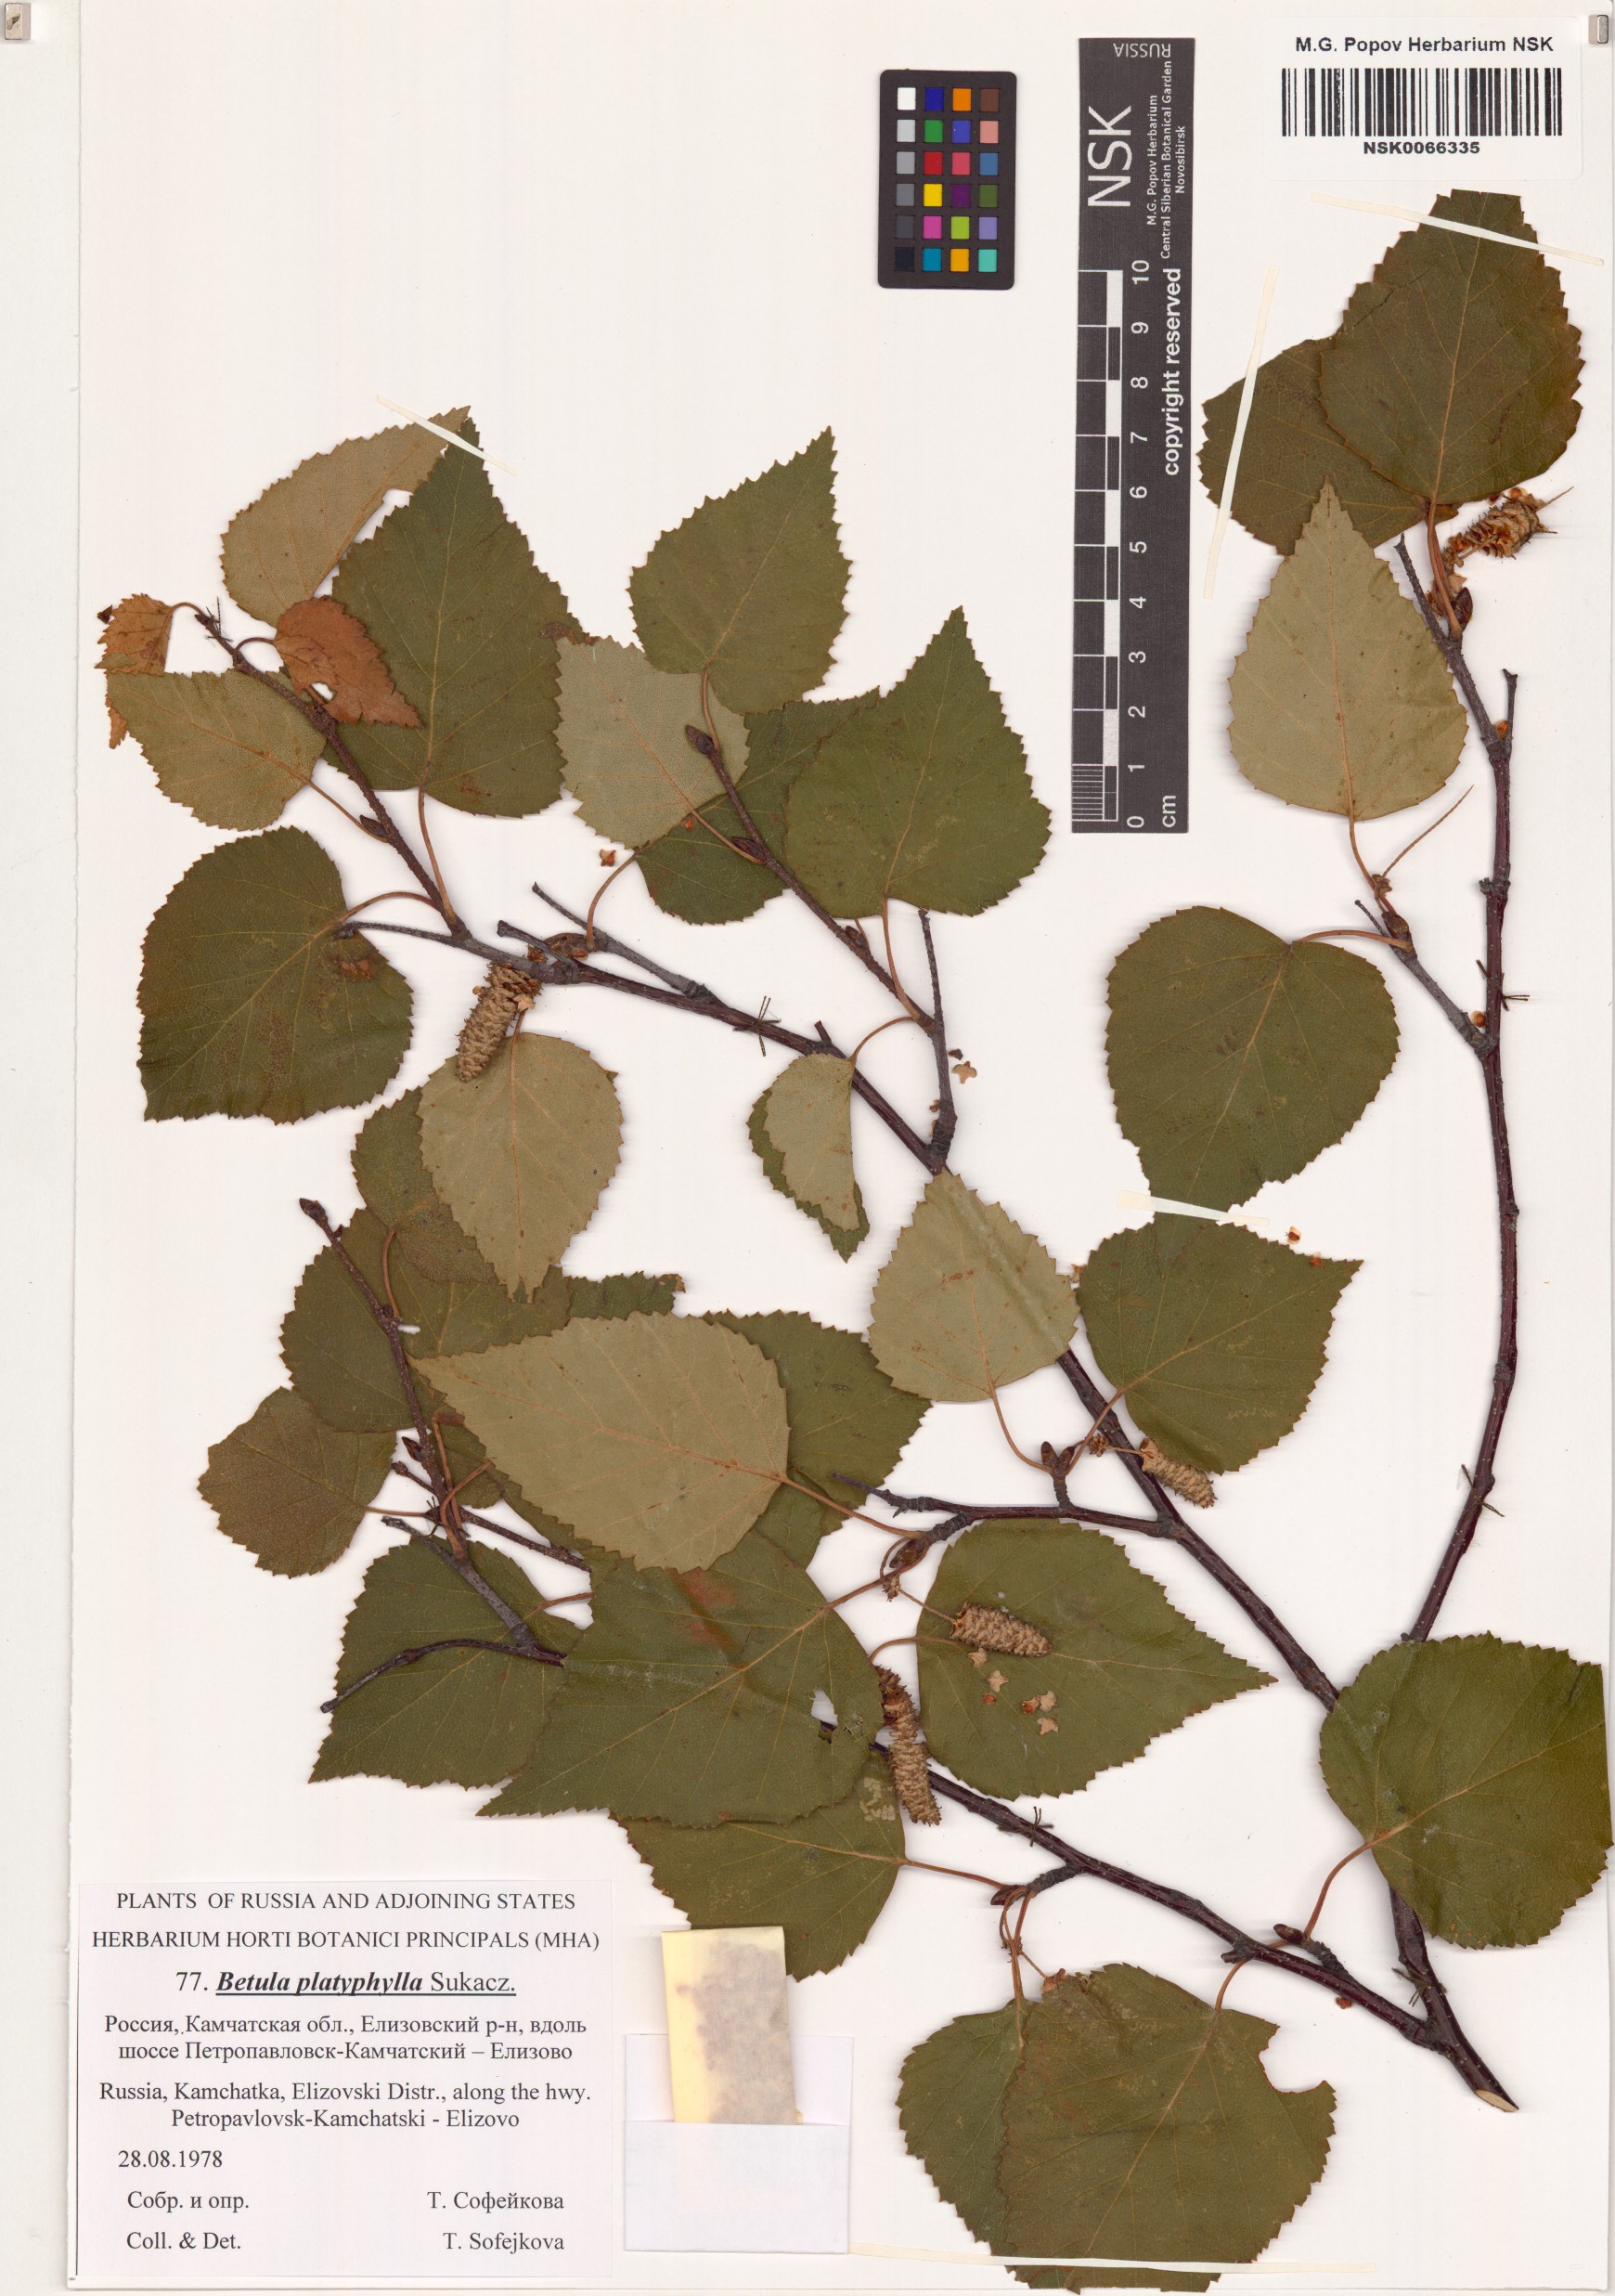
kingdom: Plantae
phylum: Tracheophyta
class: Magnoliopsida
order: Fagales
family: Betulaceae
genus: Betula
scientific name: Betula pendula
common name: Silver birch
